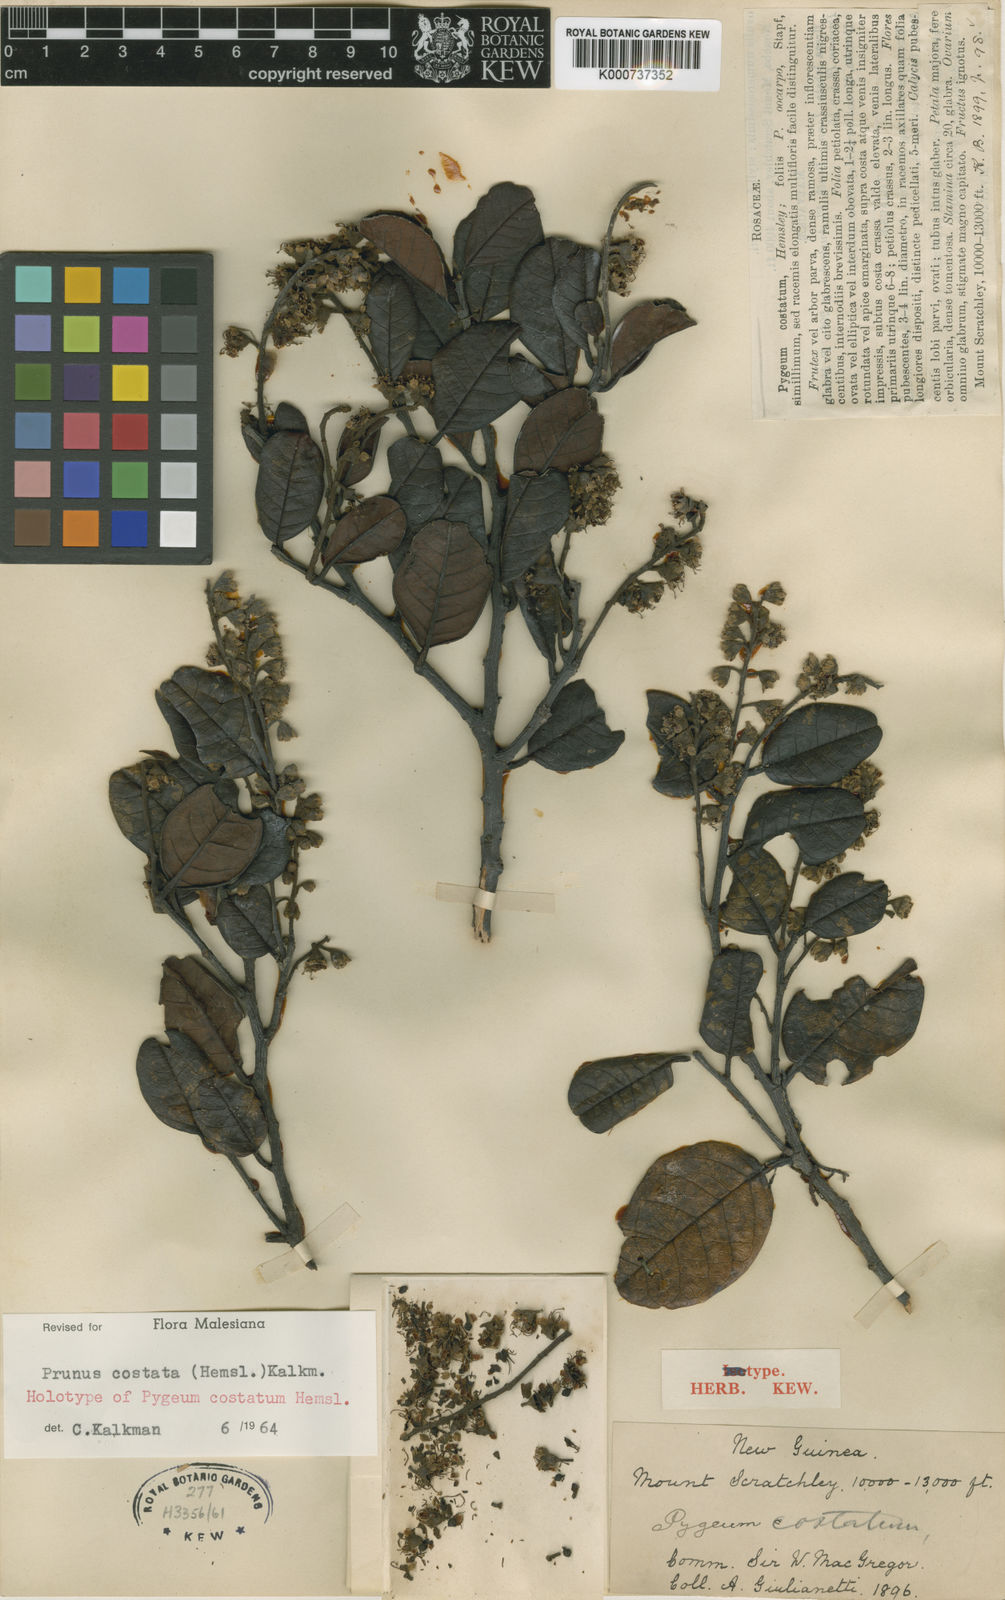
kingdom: Plantae
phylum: Tracheophyta
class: Magnoliopsida
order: Rosales
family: Rosaceae
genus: Prunus
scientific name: Prunus costata
